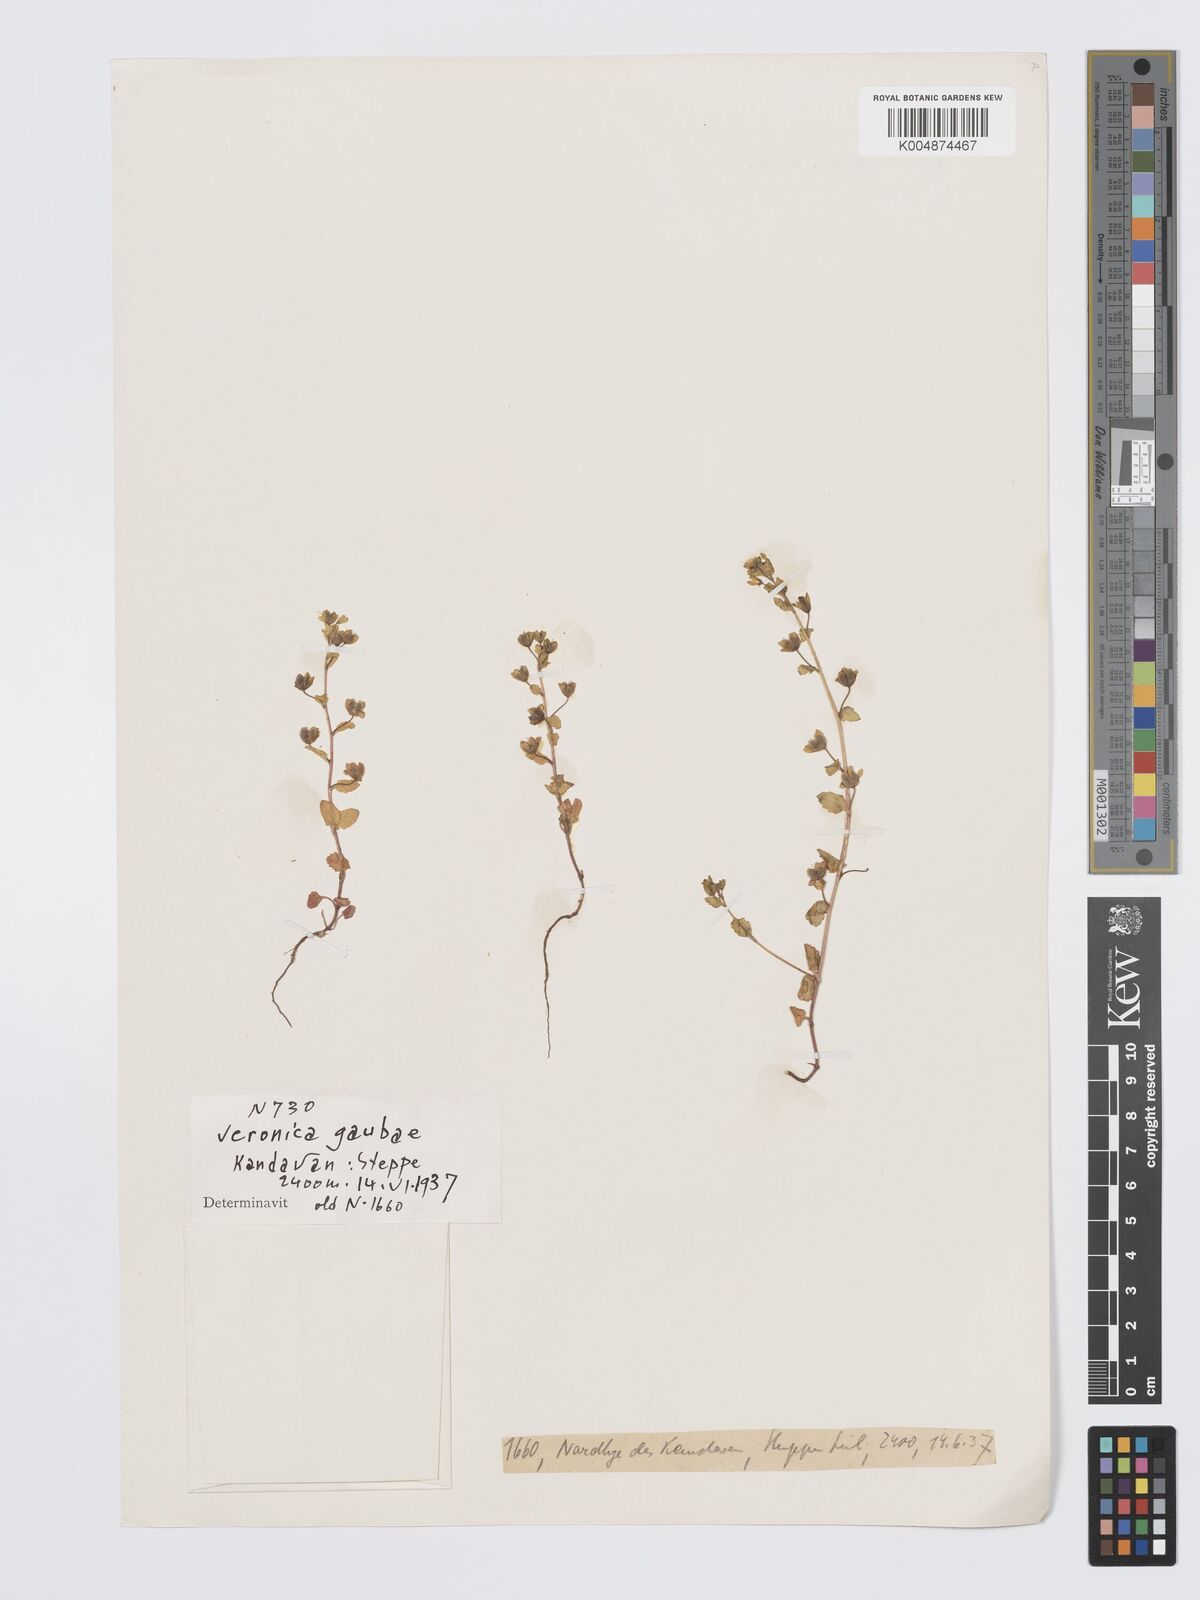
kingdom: Plantae
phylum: Tracheophyta
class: Magnoliopsida
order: Lamiales
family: Plantaginaceae
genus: Veronica
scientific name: Veronica gaubae
